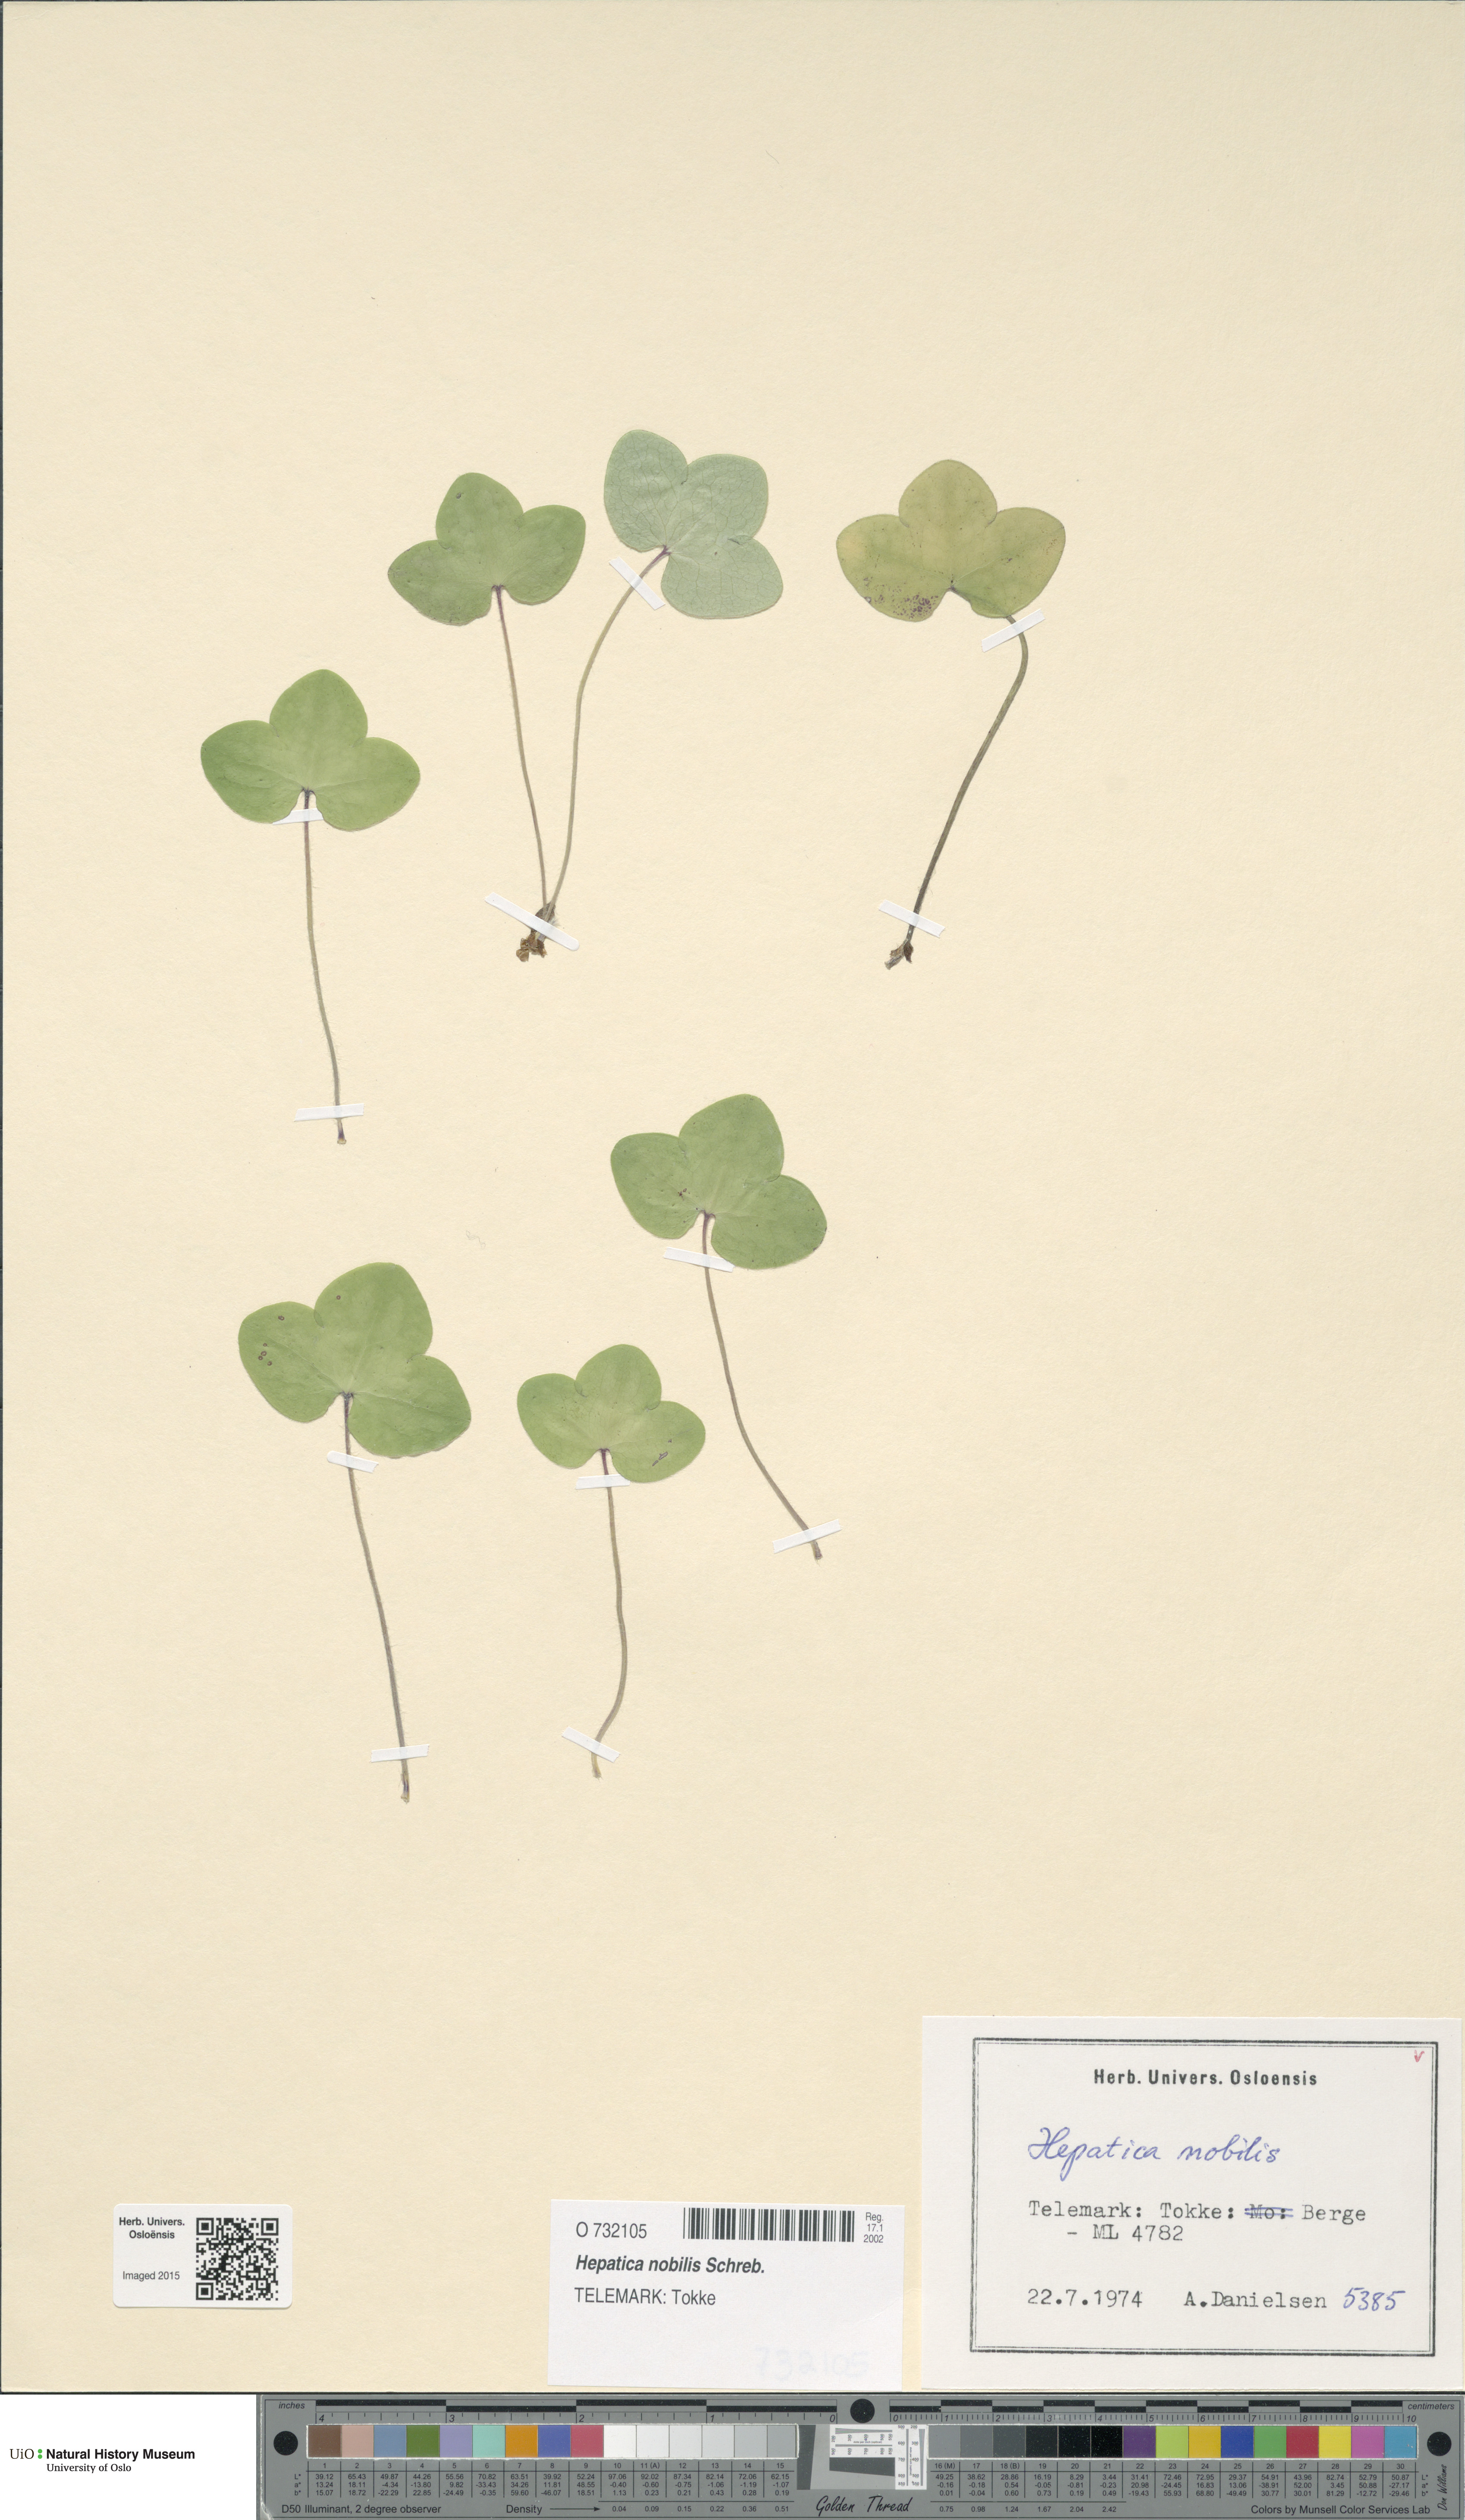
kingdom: Plantae
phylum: Tracheophyta
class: Magnoliopsida
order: Ranunculales
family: Ranunculaceae
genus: Hepatica
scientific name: Hepatica nobilis
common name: Liverleaf
